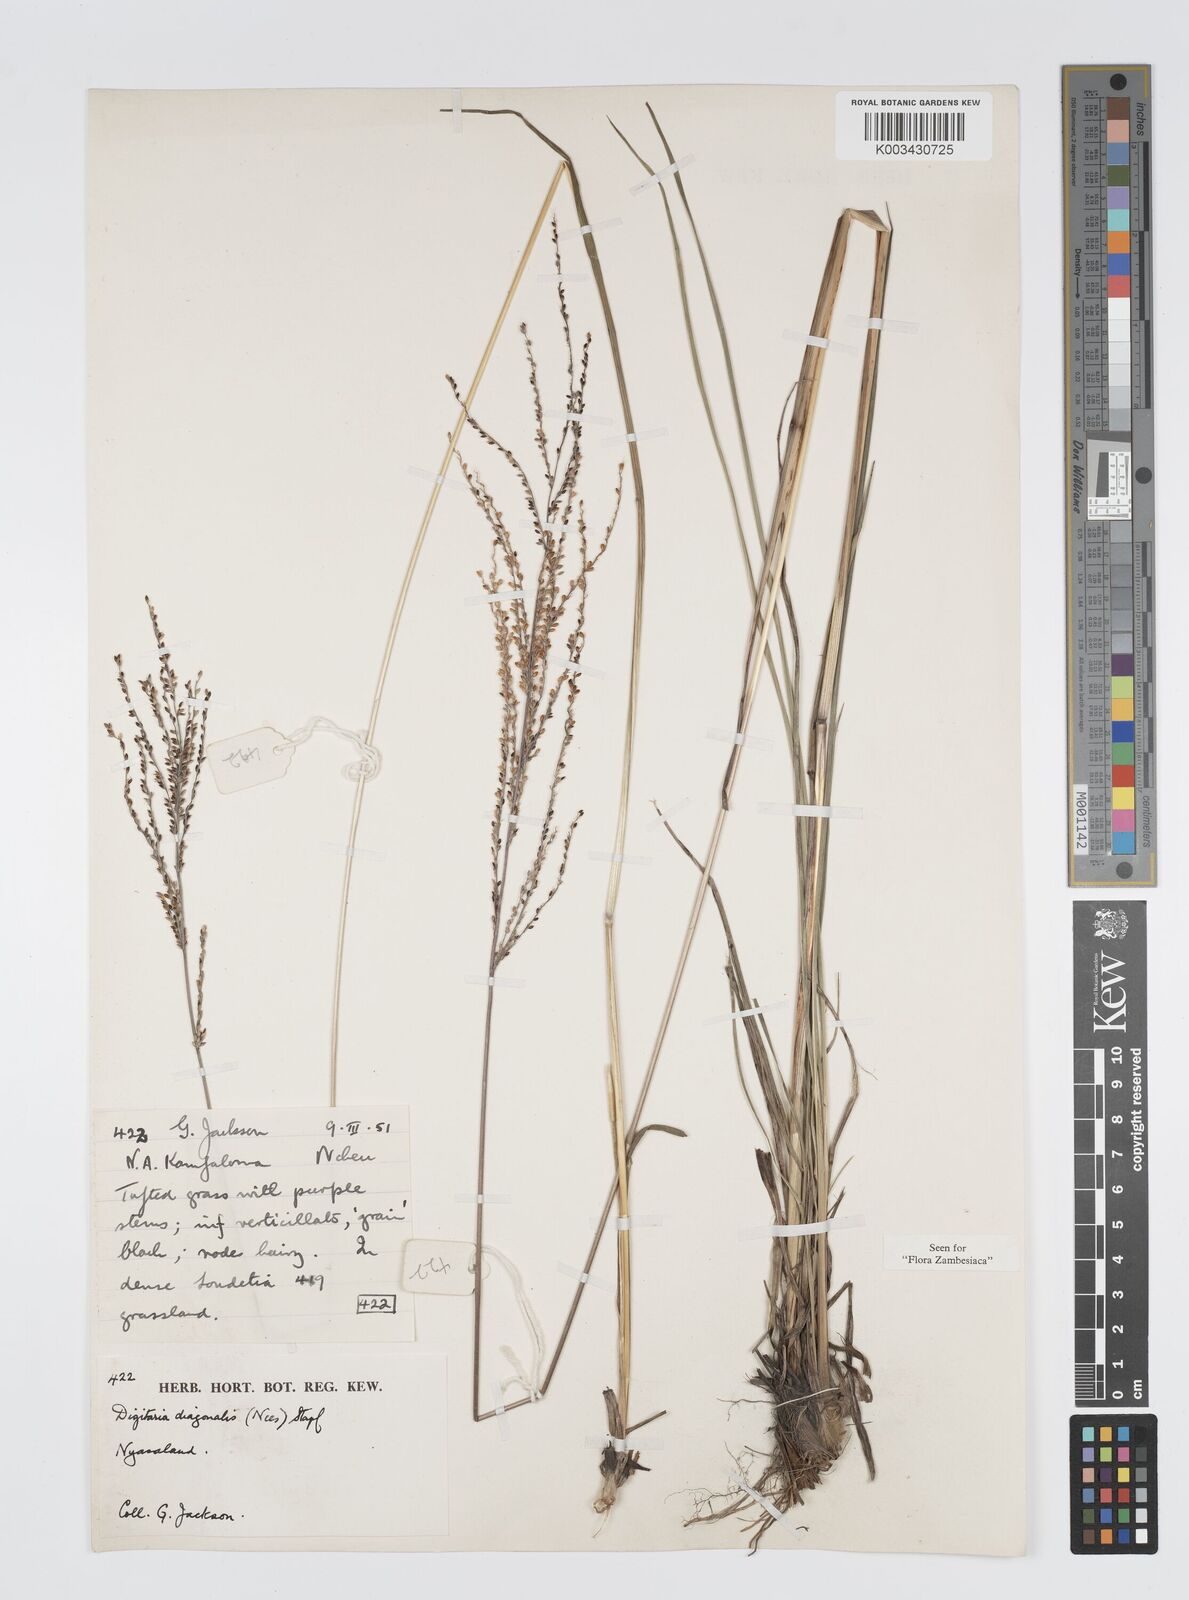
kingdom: Plantae
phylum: Tracheophyta
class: Liliopsida
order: Poales
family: Poaceae
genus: Digitaria
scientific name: Digitaria diagonalis
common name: Brown-seed finger grass
